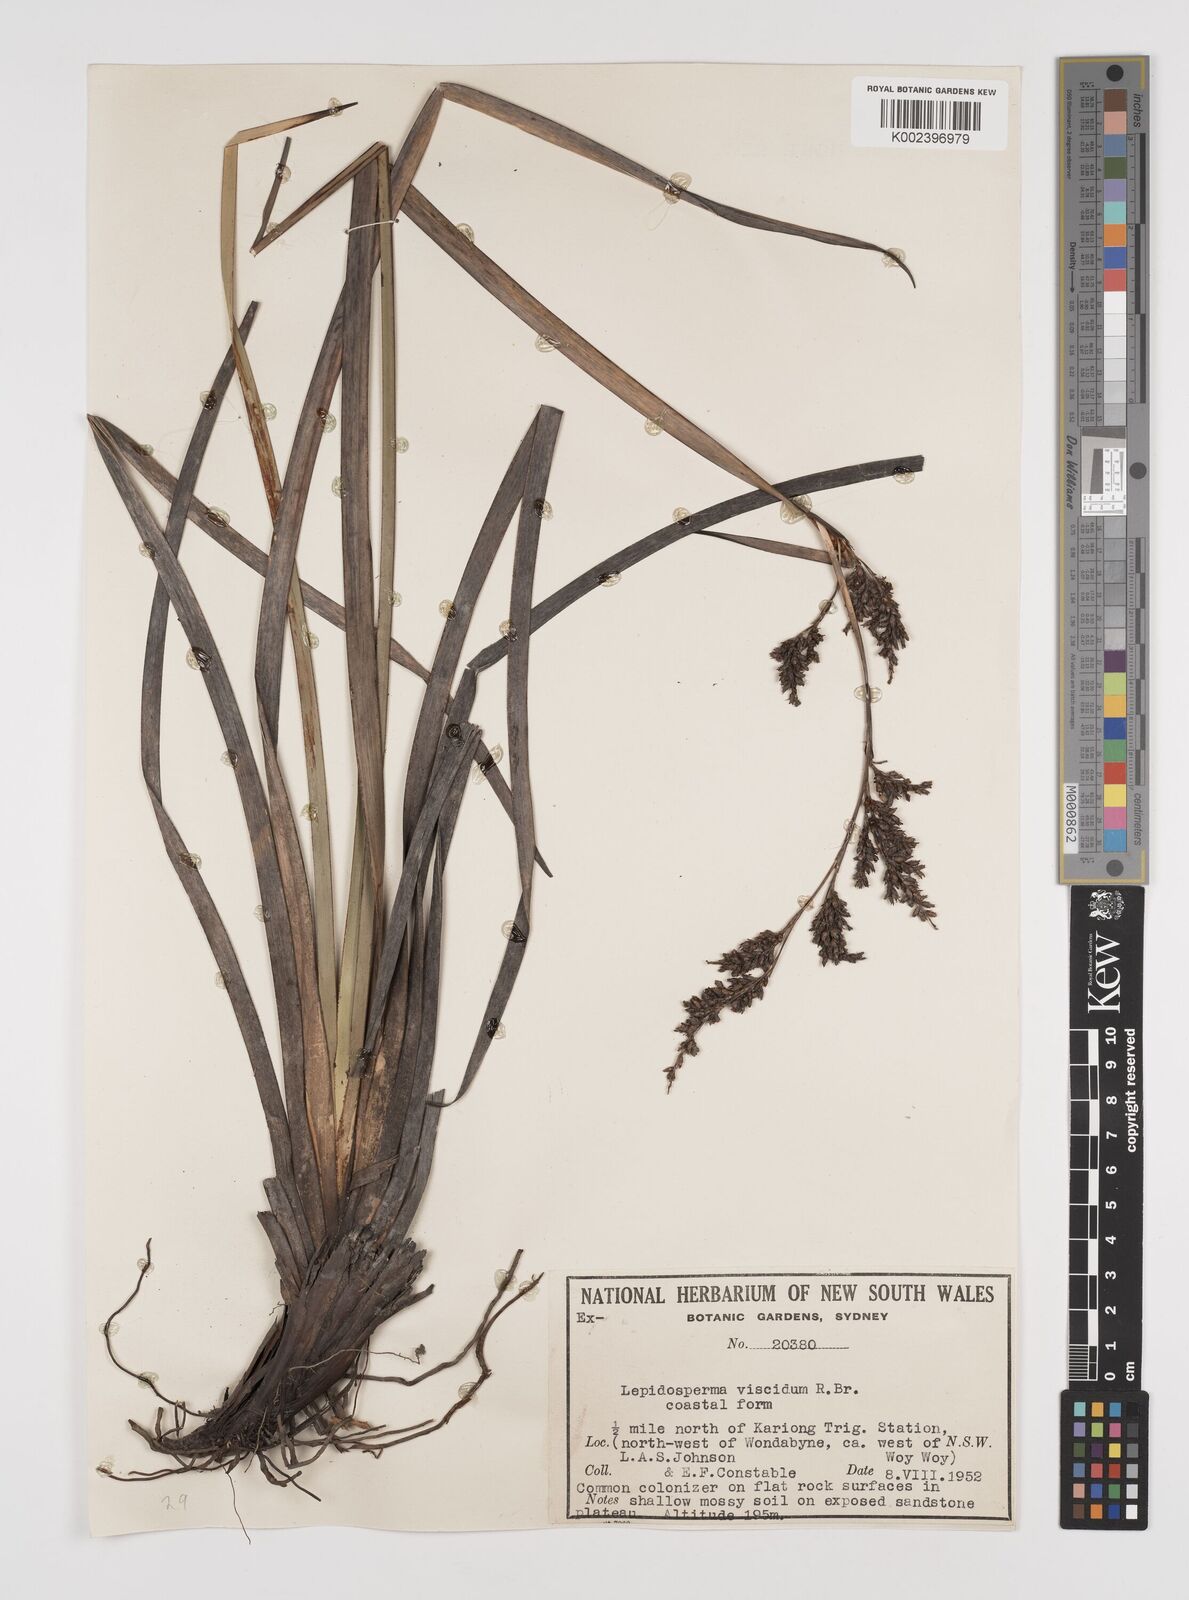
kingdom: Plantae
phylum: Tracheophyta
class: Liliopsida
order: Poales
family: Cyperaceae
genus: Lepidosperma
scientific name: Lepidosperma viscidum
